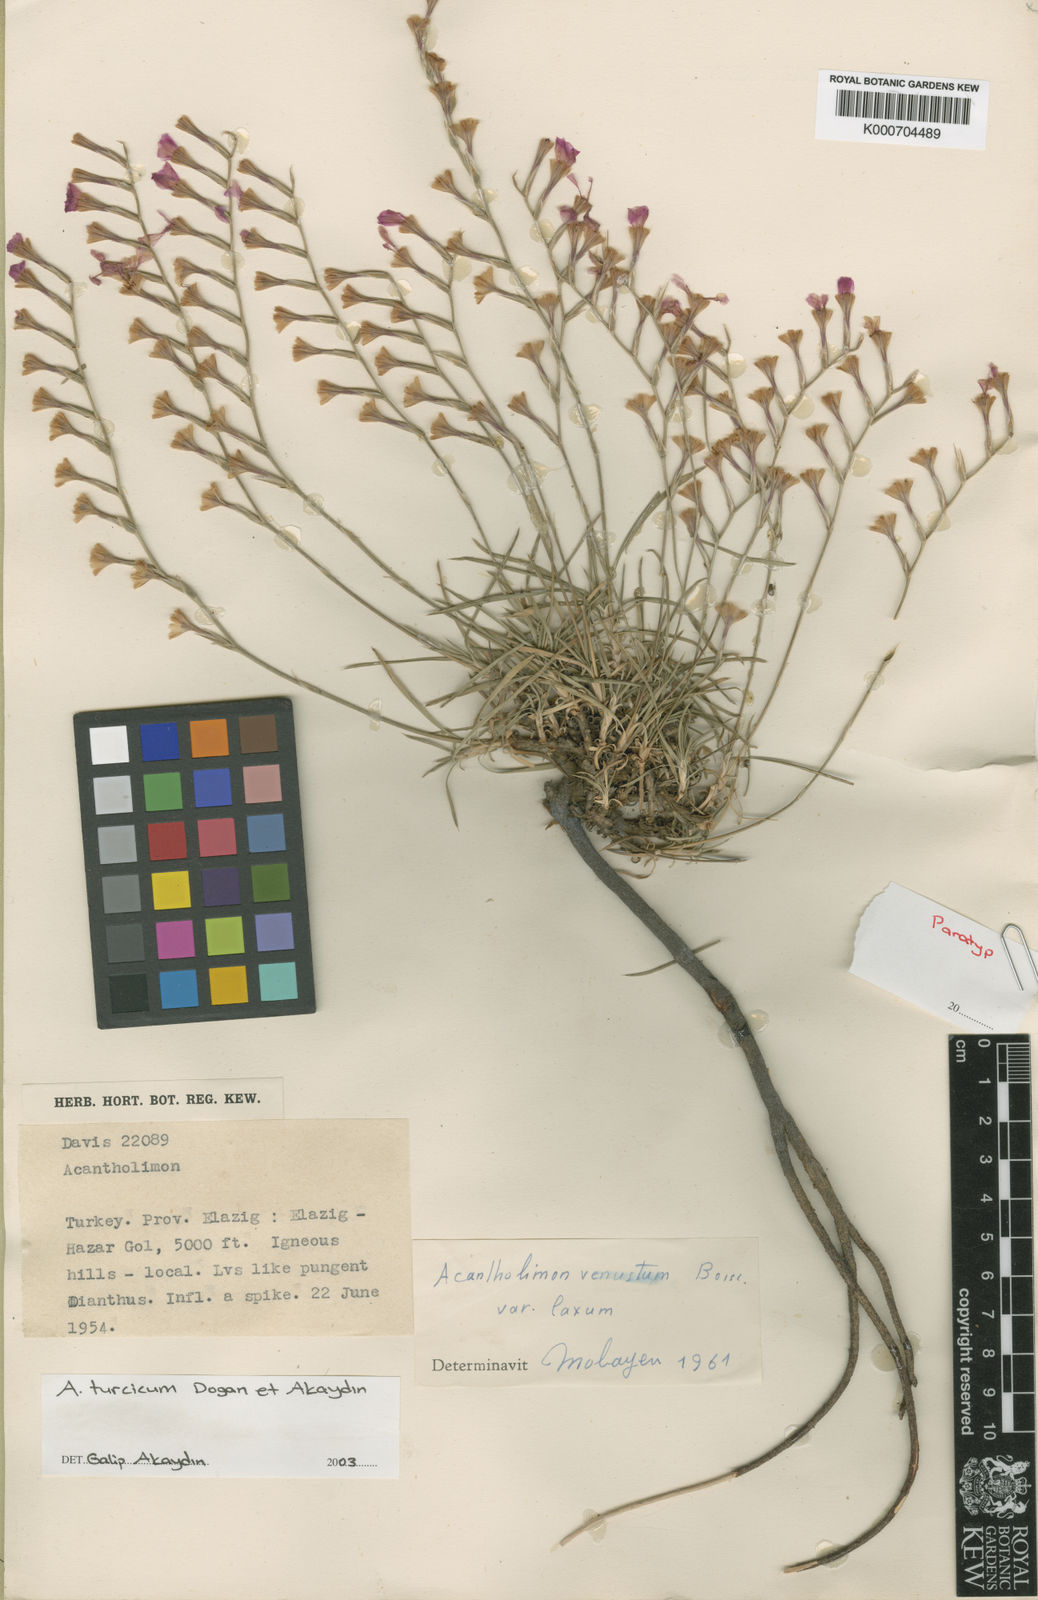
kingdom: Plantae
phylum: Tracheophyta
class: Magnoliopsida
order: Caryophyllales
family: Plumbaginaceae
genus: Acantholimon
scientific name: Acantholimon turcicum
